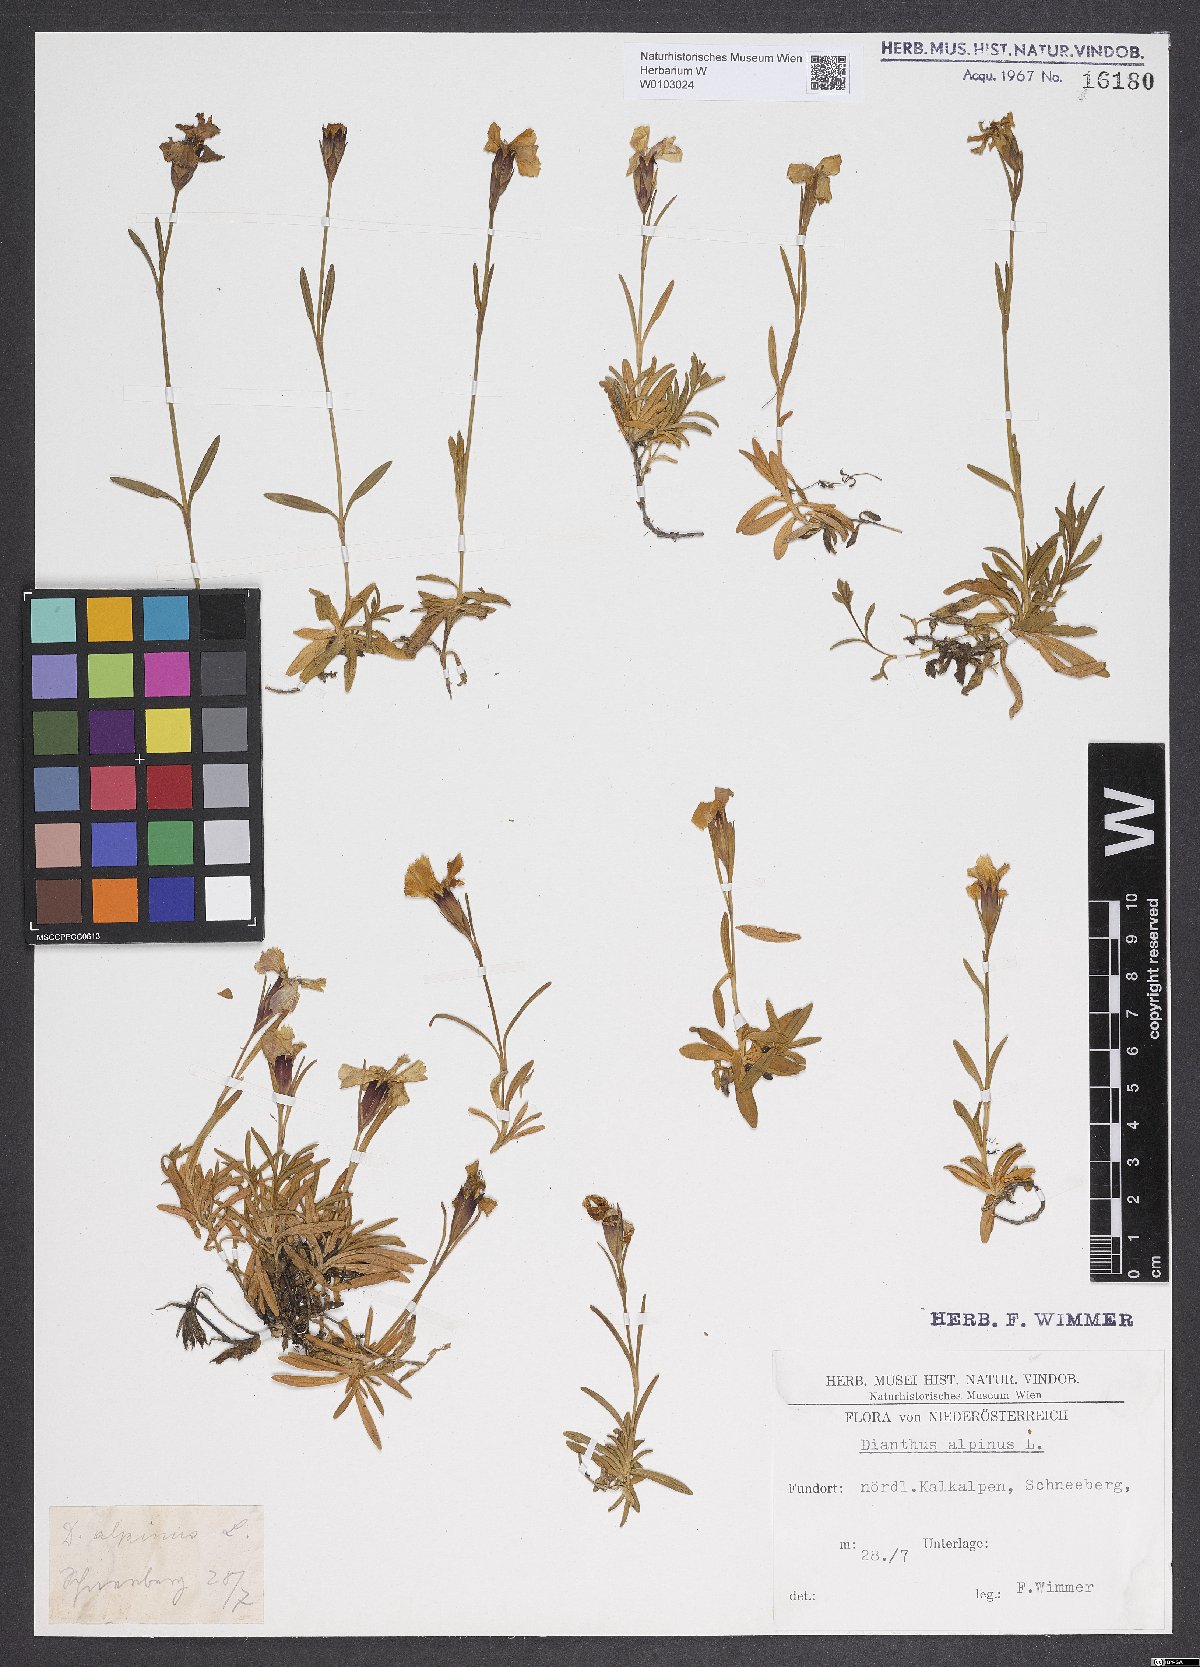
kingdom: Plantae
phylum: Tracheophyta
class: Magnoliopsida
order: Caryophyllales
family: Caryophyllaceae
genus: Dianthus
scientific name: Dianthus alpinus
